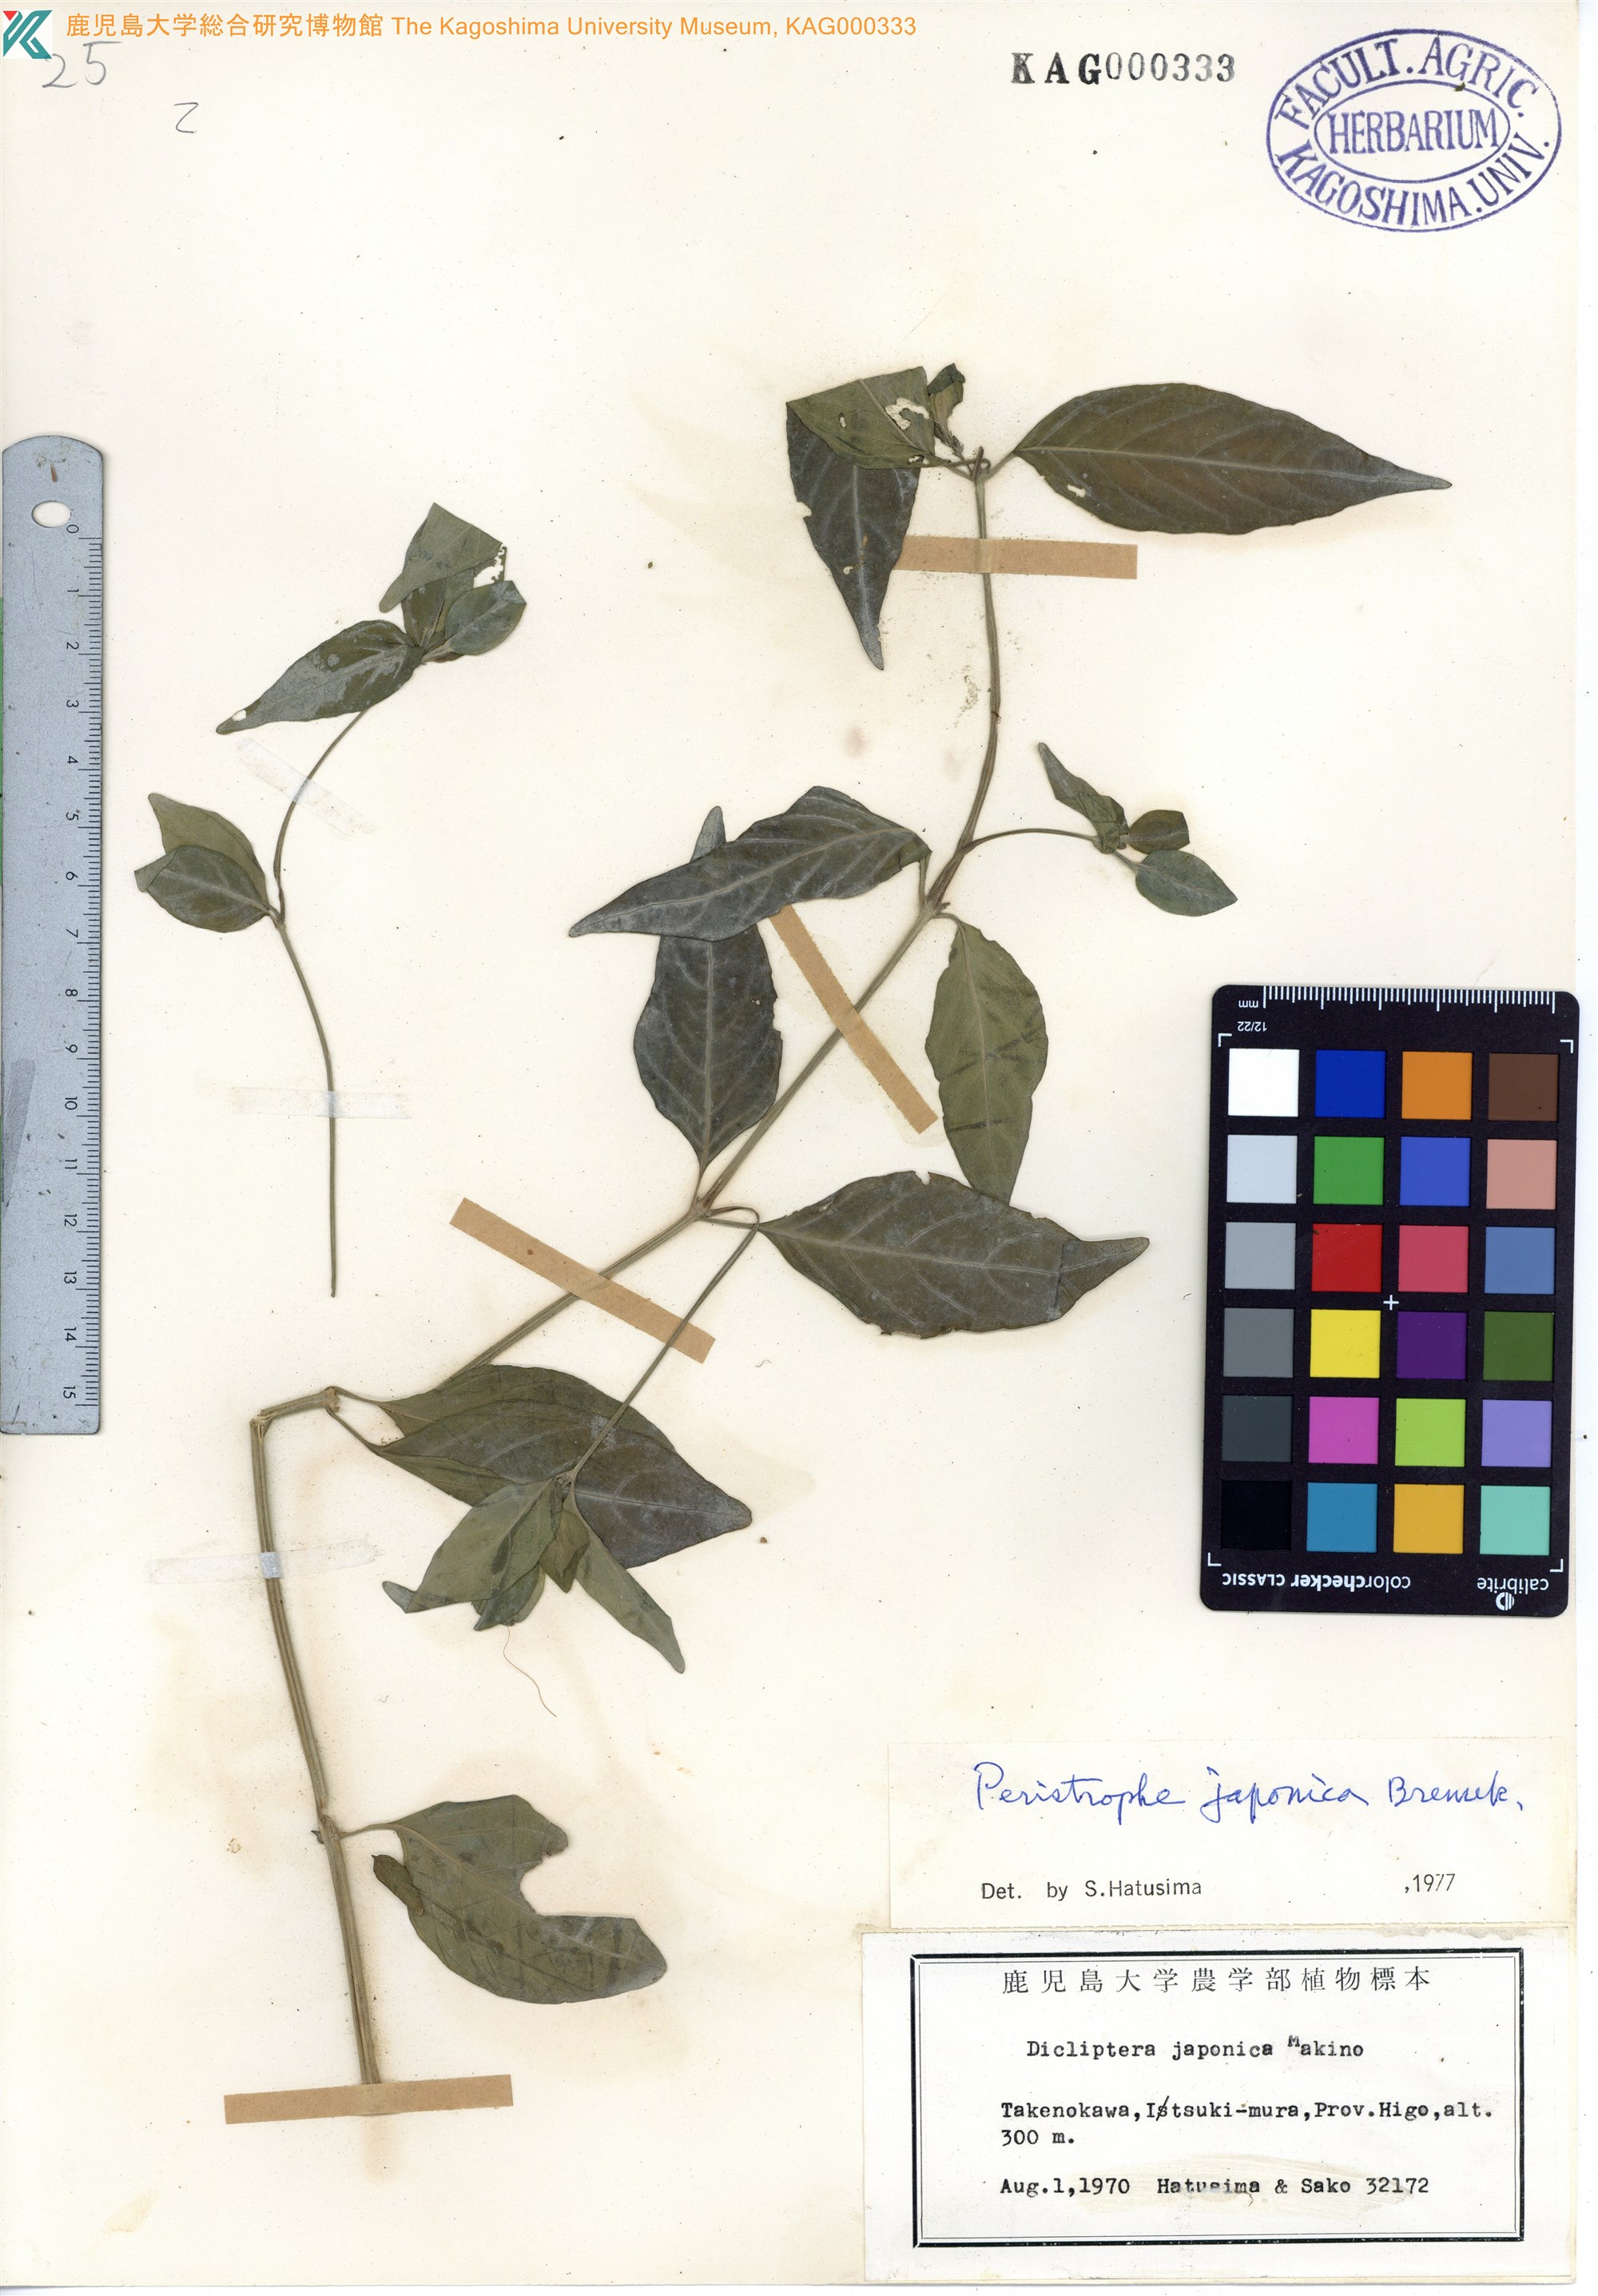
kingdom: Plantae
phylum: Tracheophyta
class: Magnoliopsida
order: Lamiales
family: Acanthaceae
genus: Dicliptera
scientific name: Dicliptera japonica
